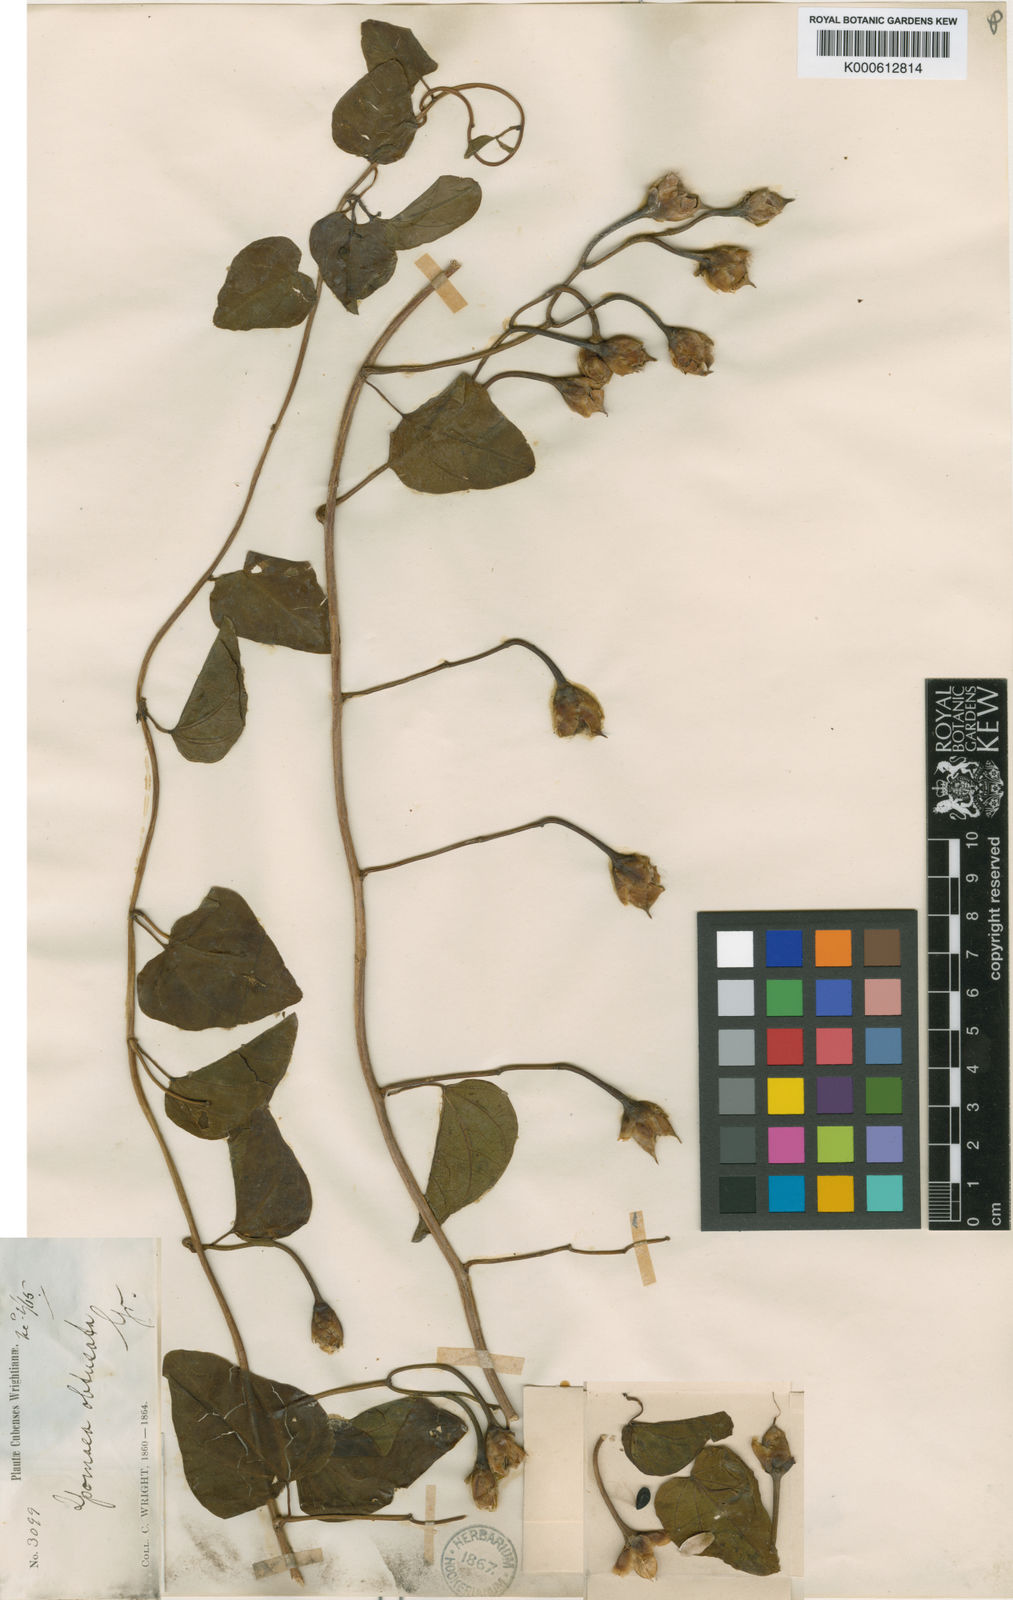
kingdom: Plantae
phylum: Tracheophyta
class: Magnoliopsida
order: Solanales
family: Convolvulaceae
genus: Ipomoea
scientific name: Ipomoea alterniflora
